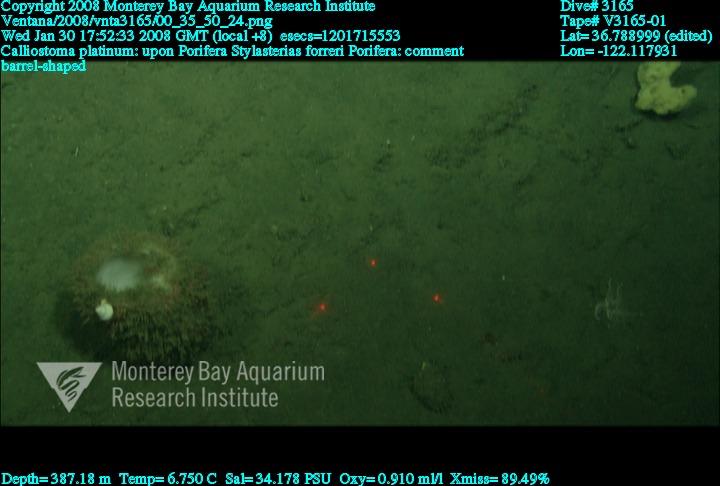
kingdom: Animalia
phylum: Porifera
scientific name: Porifera
